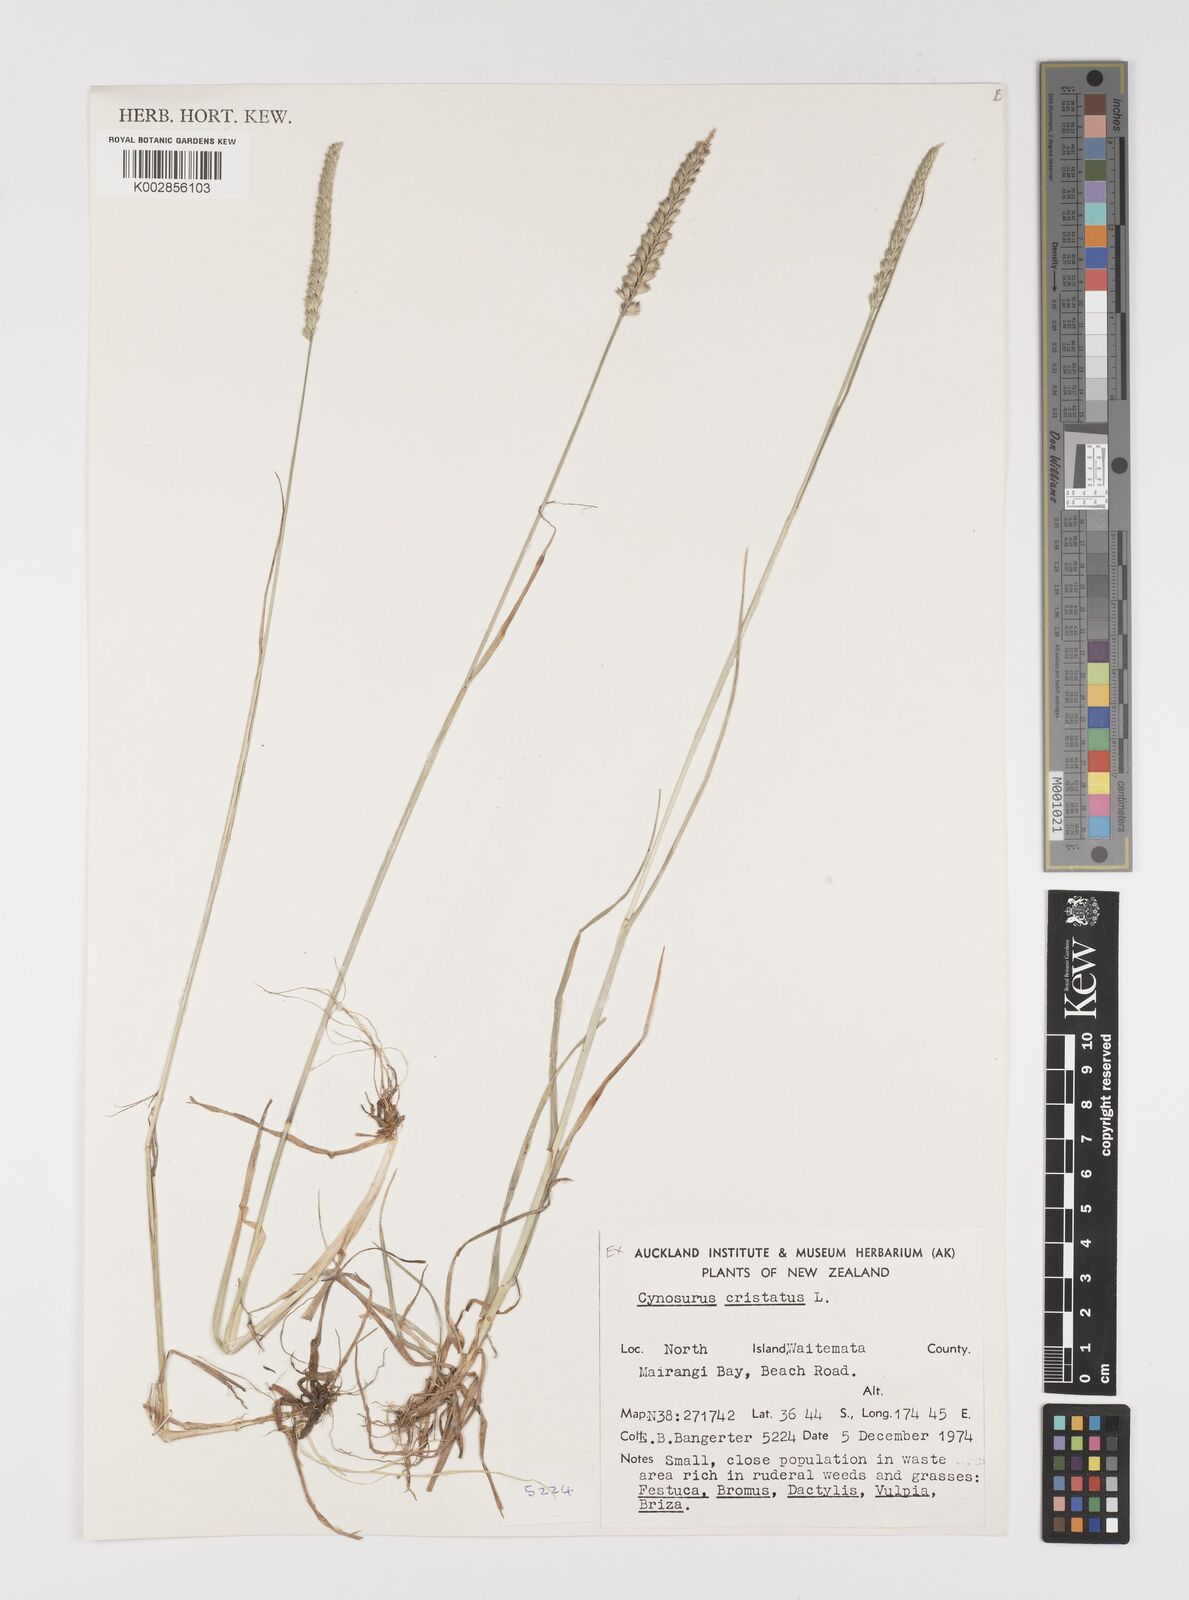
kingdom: Plantae
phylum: Tracheophyta
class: Liliopsida
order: Poales
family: Poaceae
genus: Cynosurus
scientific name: Cynosurus cristatus
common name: Crested dog's-tail
